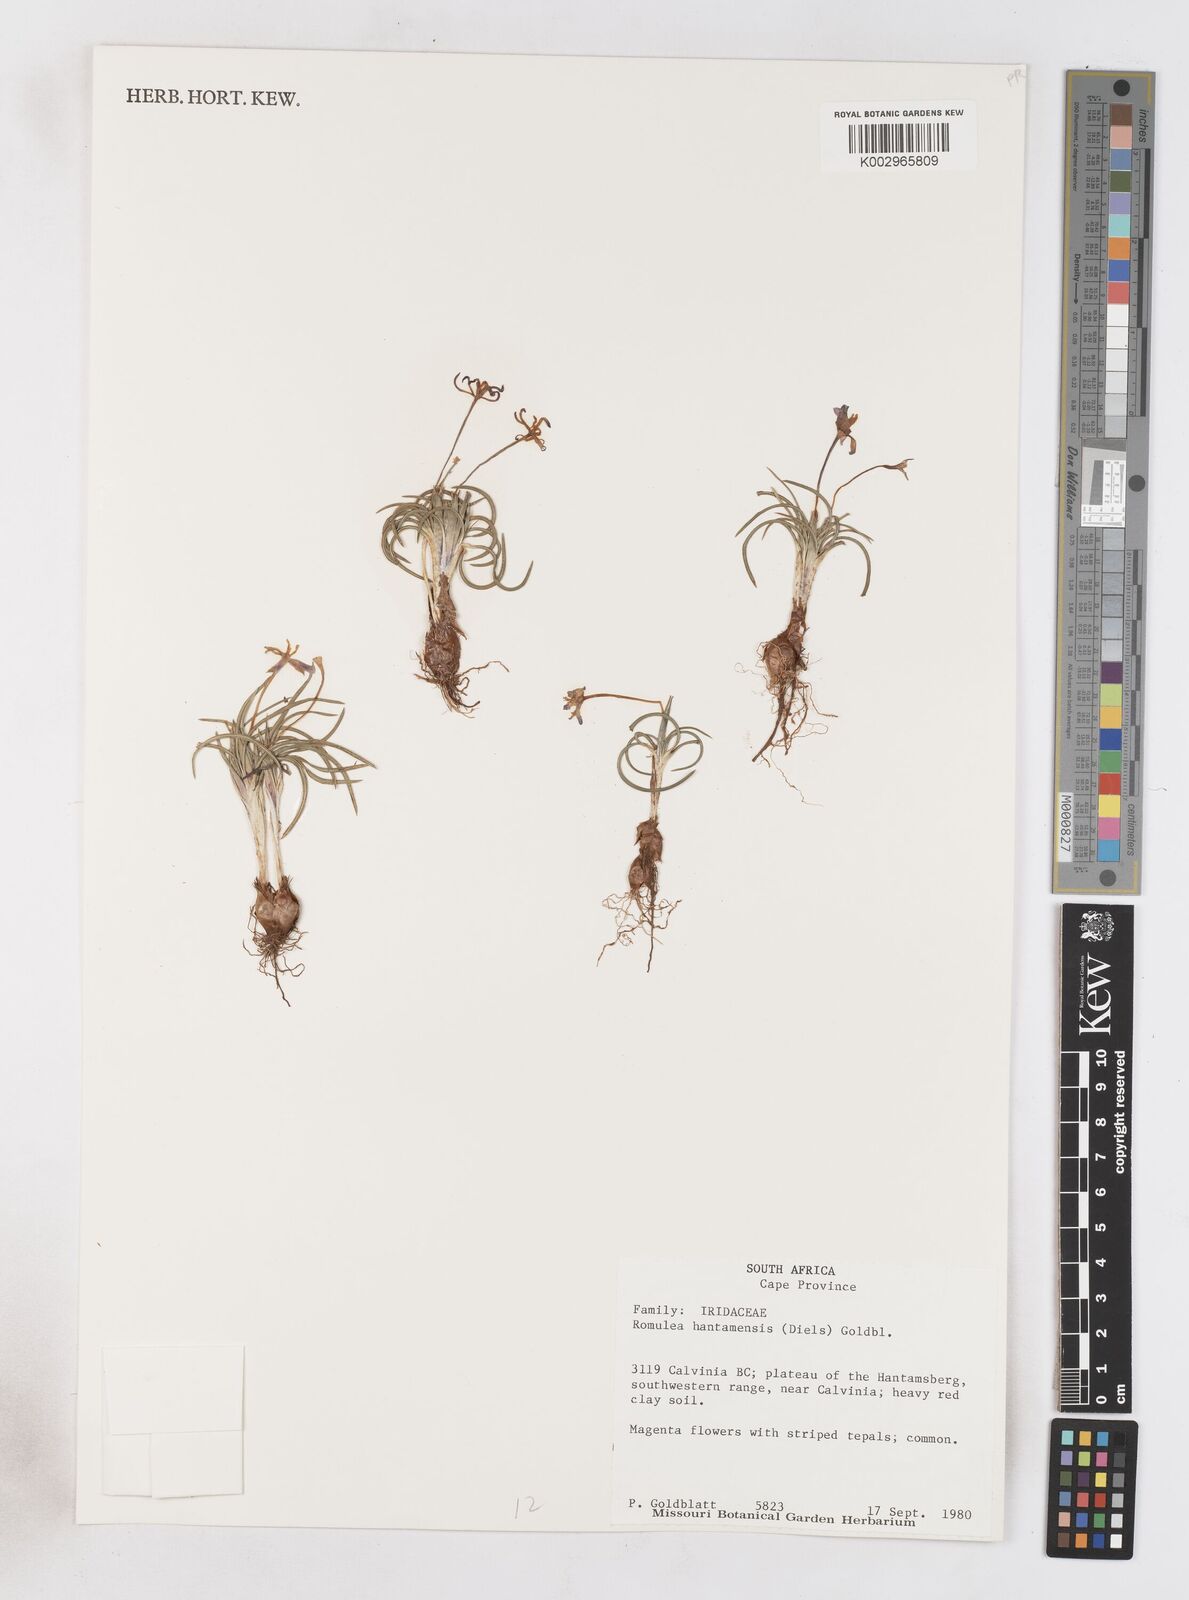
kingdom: Plantae
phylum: Tracheophyta
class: Liliopsida
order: Asparagales
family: Iridaceae
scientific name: Iridaceae
